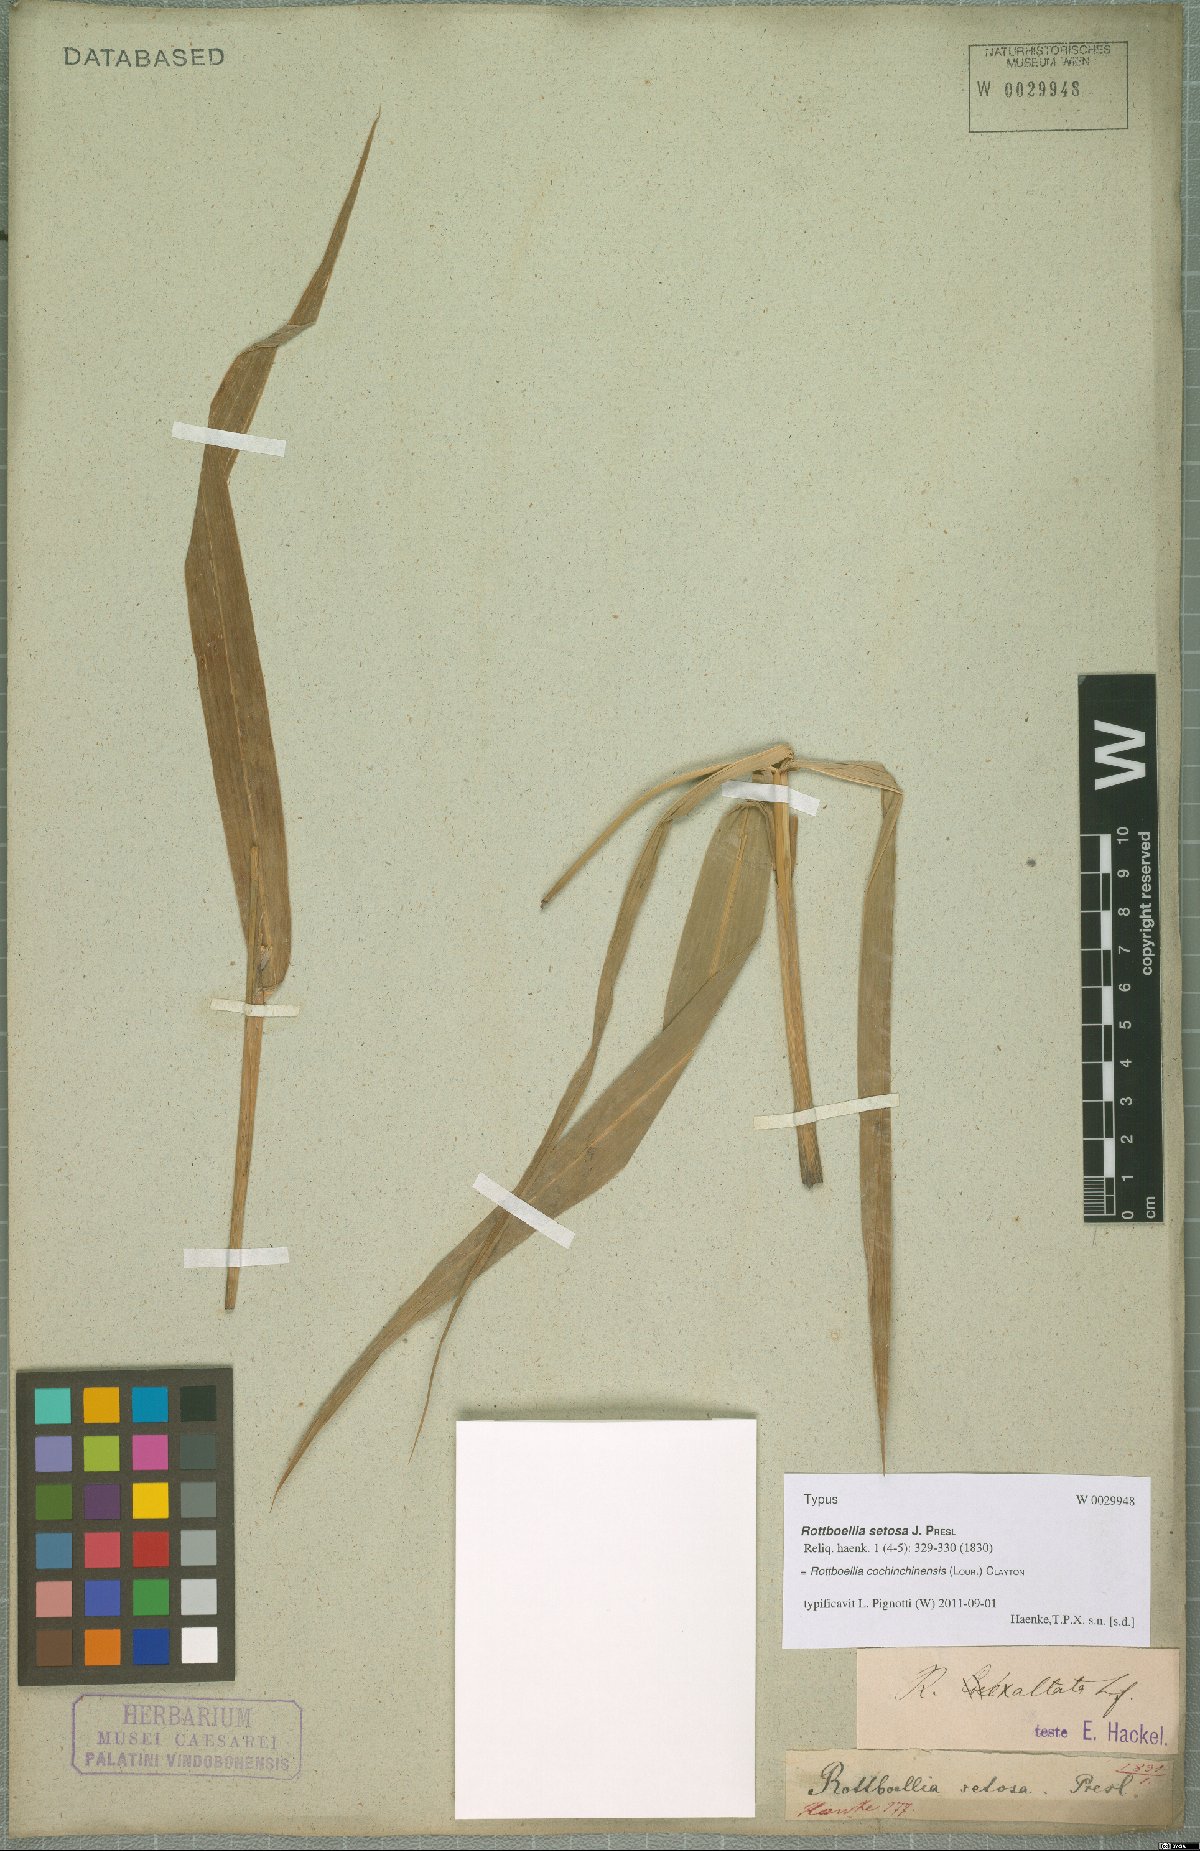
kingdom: Plantae
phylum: Tracheophyta
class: Liliopsida
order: Poales
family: Poaceae
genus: Rottboellia
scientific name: Rottboellia cochinchinensis
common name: Itchgrass
